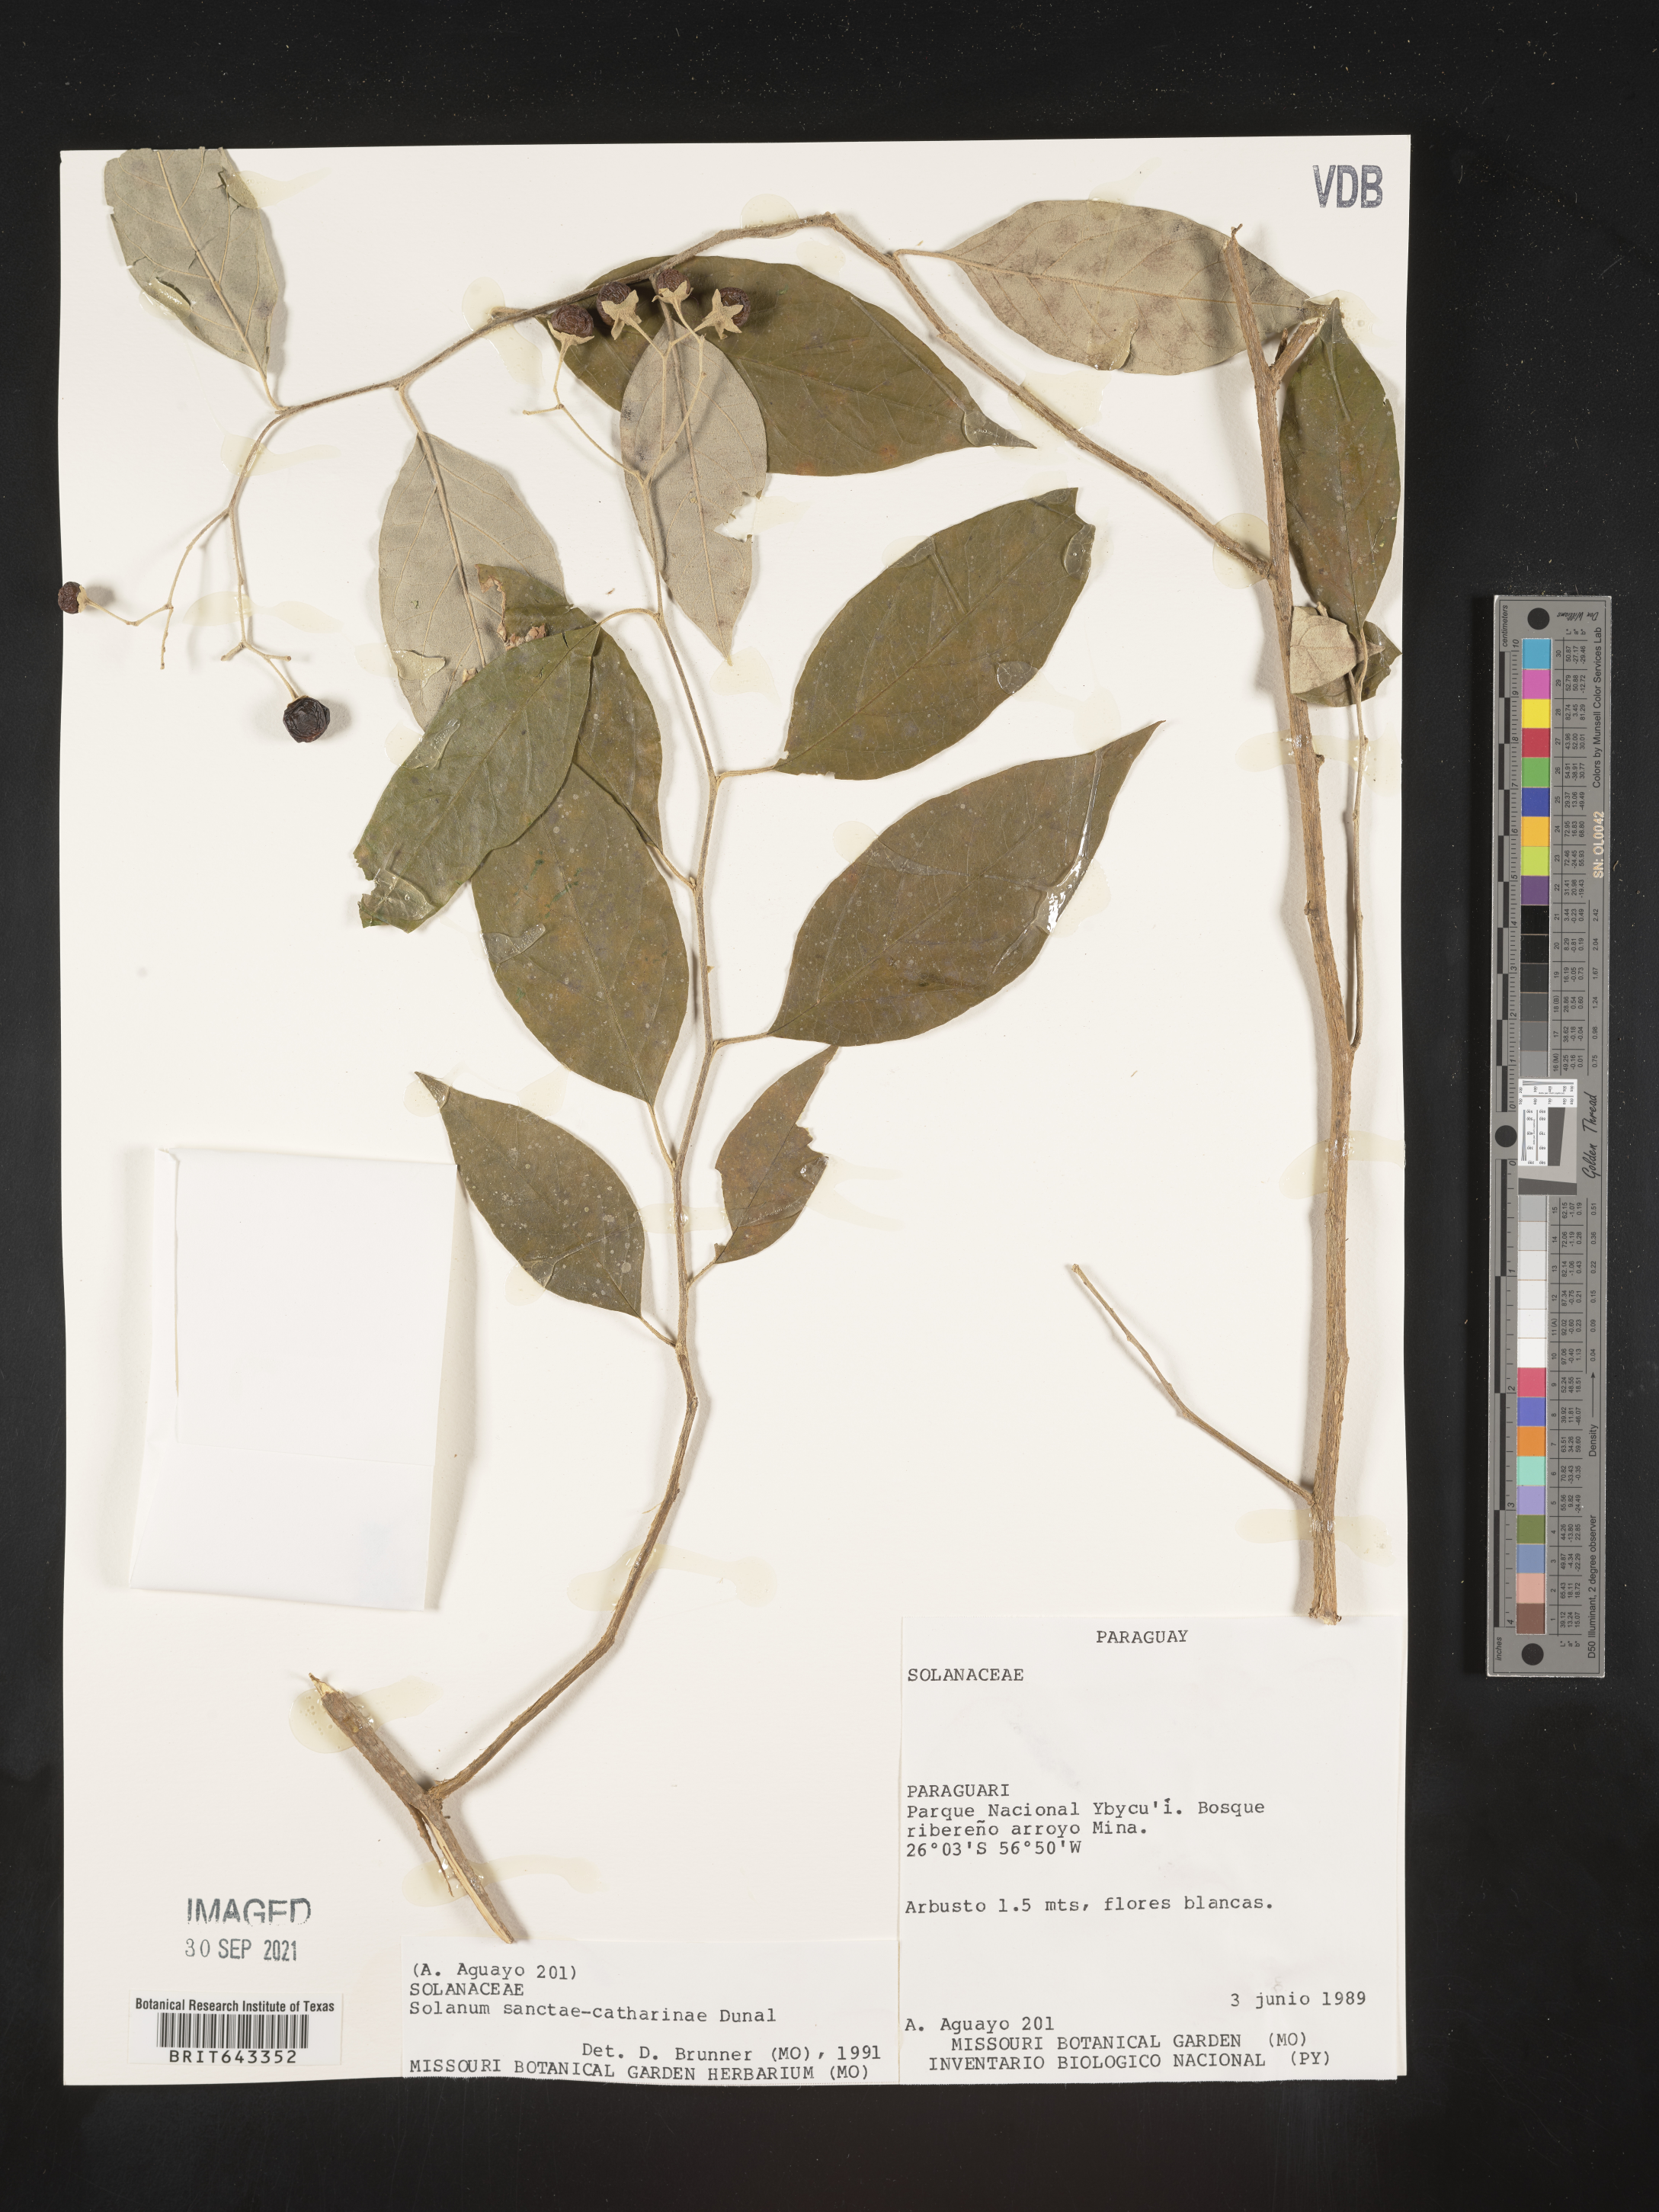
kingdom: Plantae
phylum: Tracheophyta
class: Magnoliopsida
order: Solanales
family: Solanaceae
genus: Solanum
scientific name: Solanum
